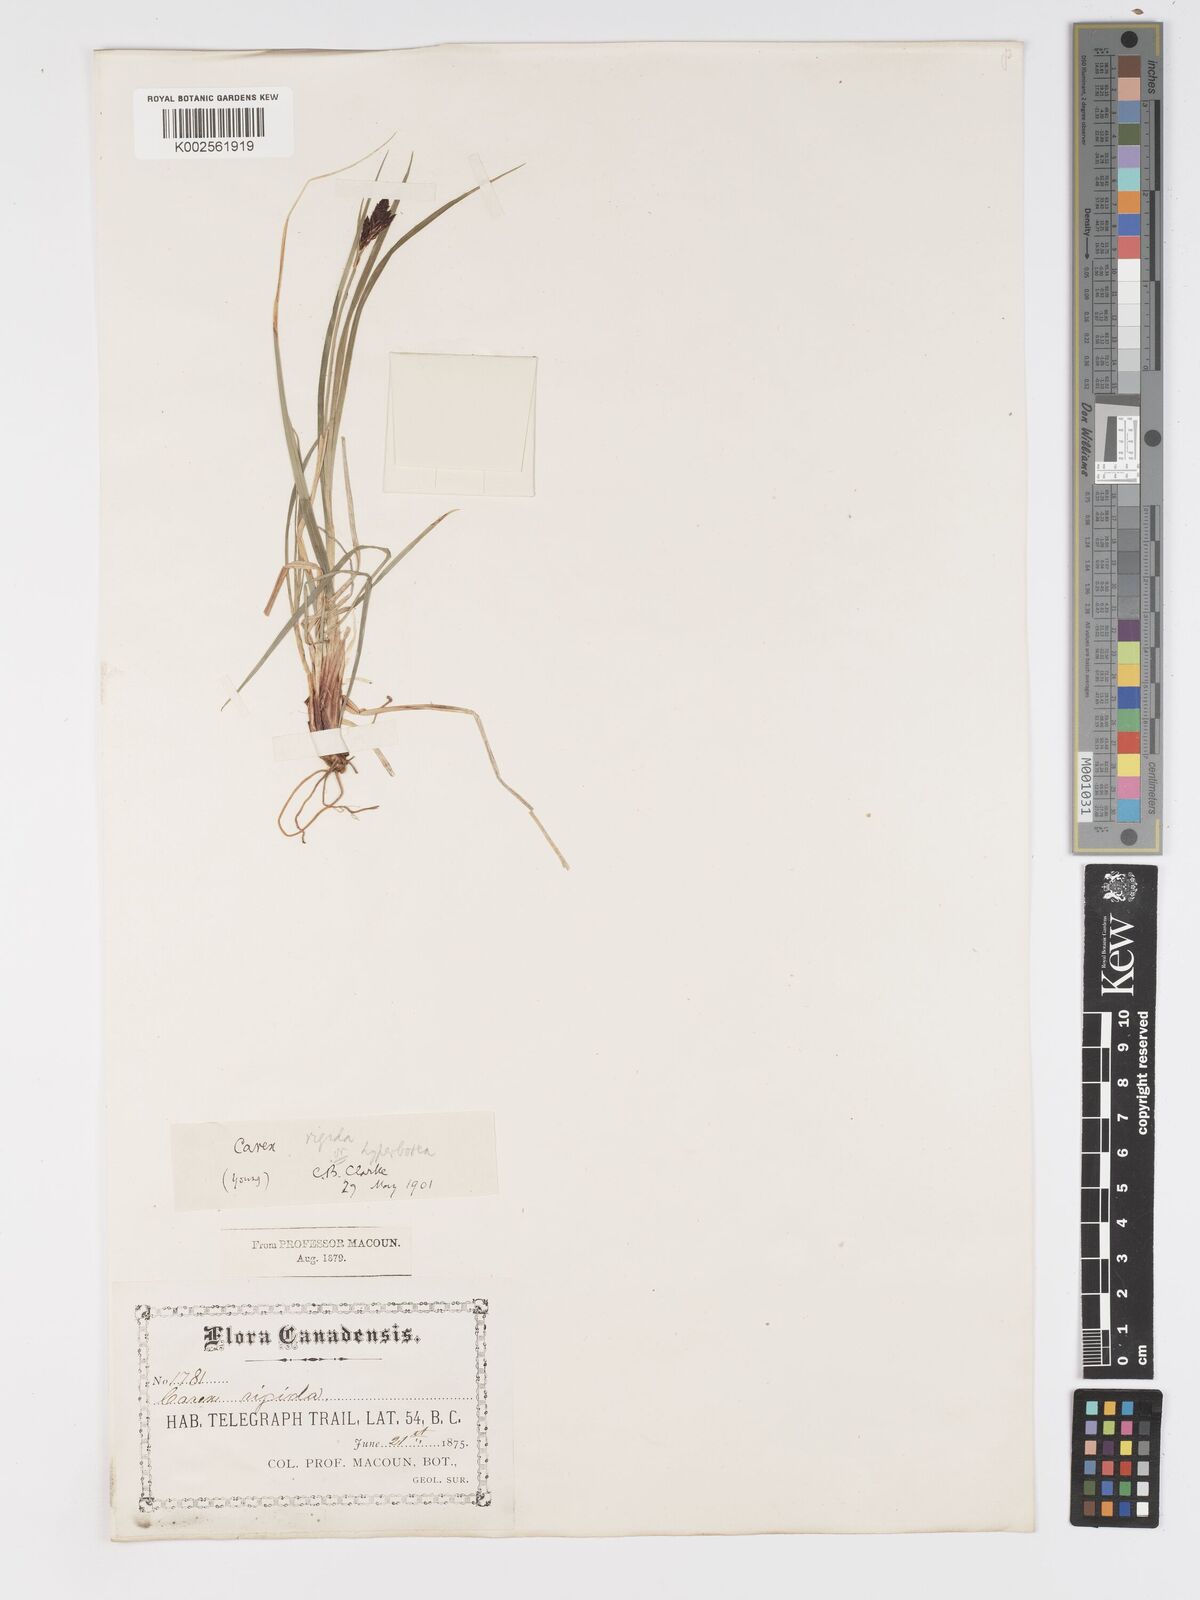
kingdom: Plantae
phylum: Tracheophyta
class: Liliopsida
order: Poales
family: Cyperaceae
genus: Carex
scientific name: Carex bigelowii
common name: Stiff sedge
